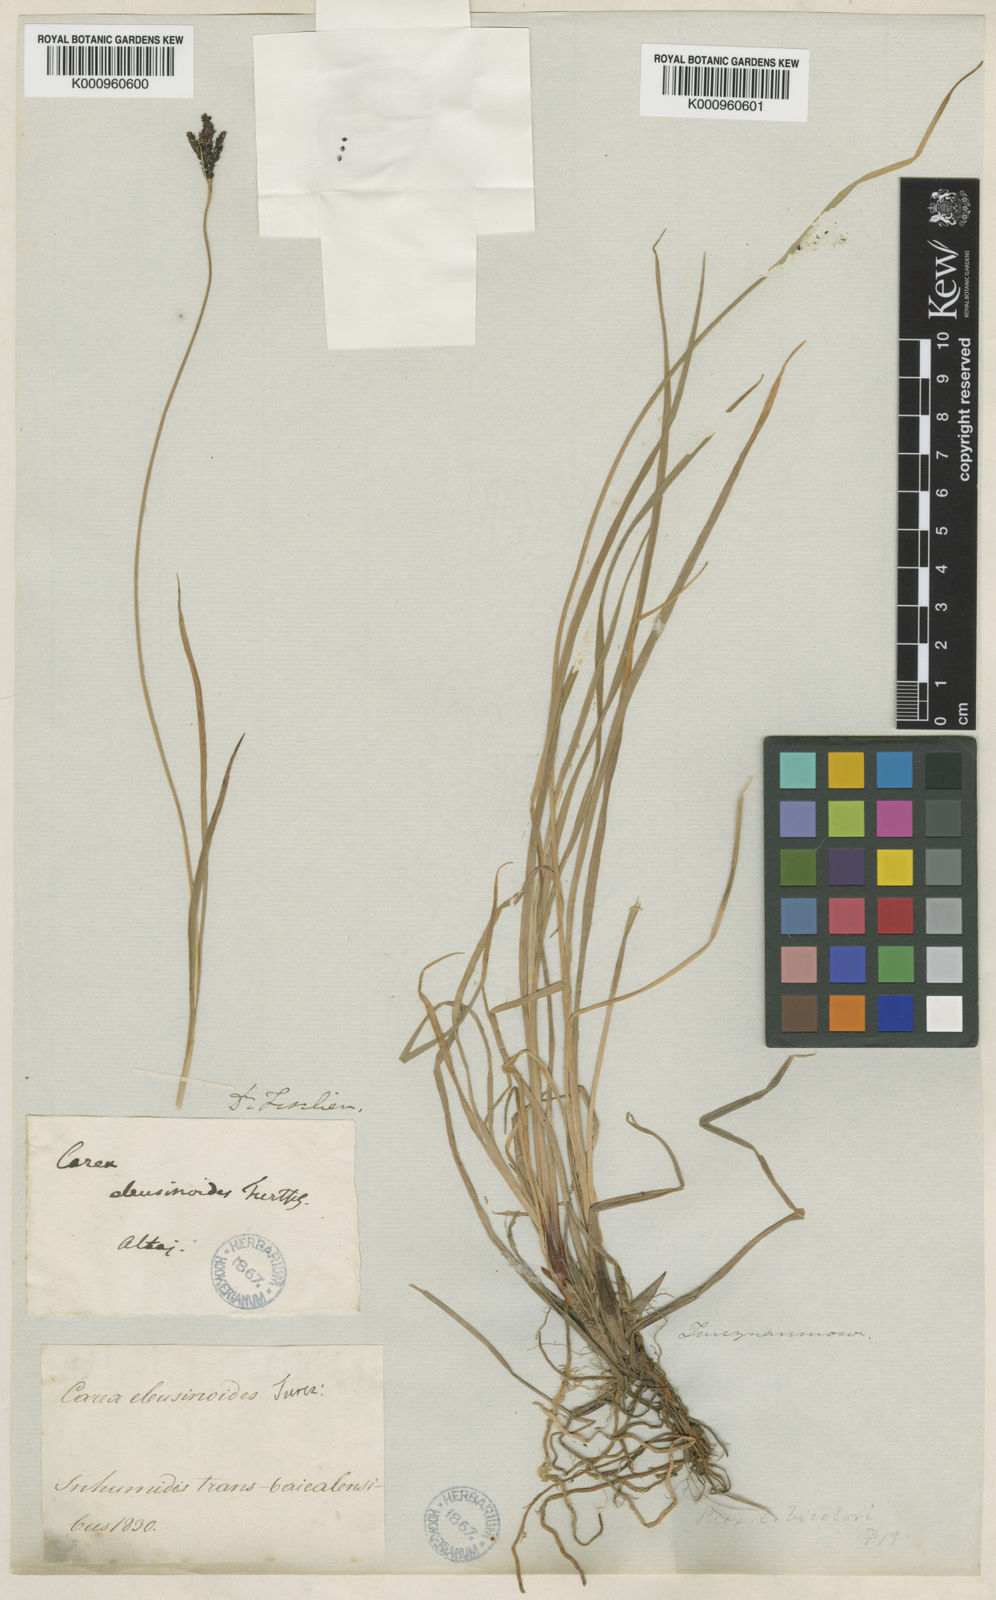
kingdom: Plantae
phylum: Tracheophyta
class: Liliopsida
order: Poales
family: Cyperaceae
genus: Carex
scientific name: Carex eleusinoides
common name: Goosegrass sedge
